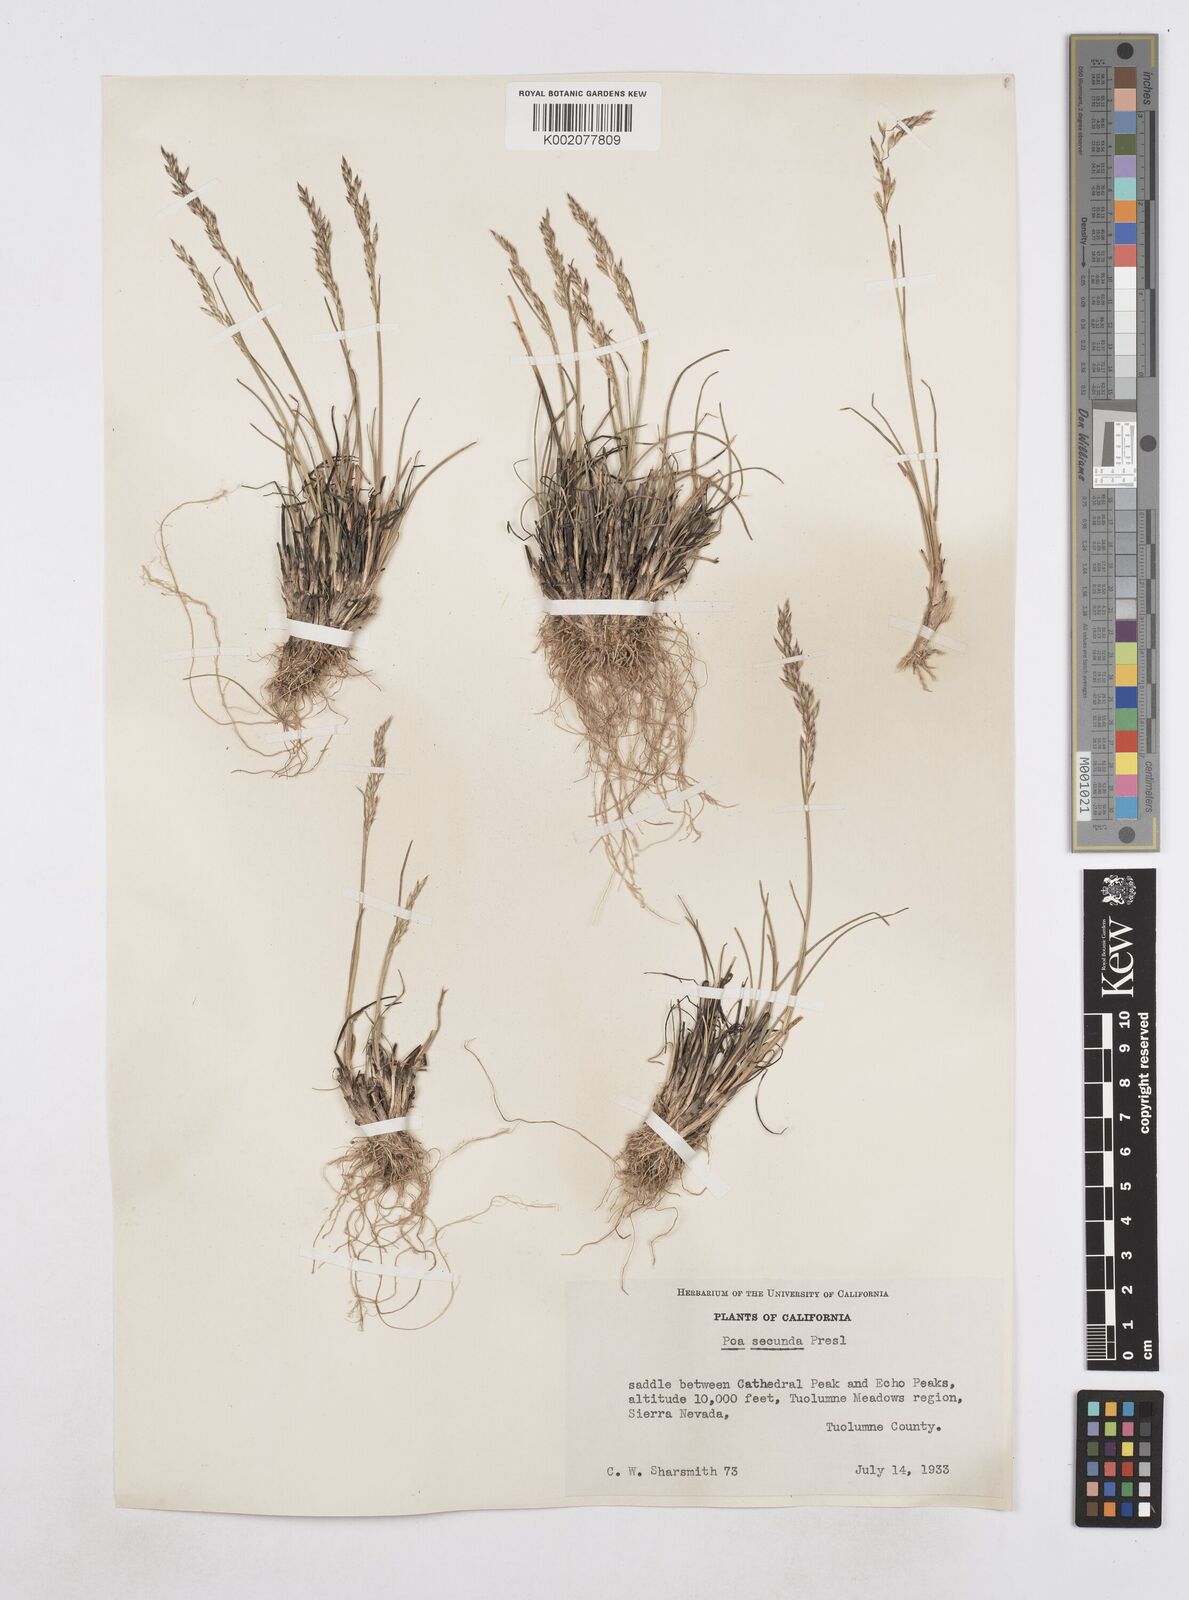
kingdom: Plantae
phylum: Tracheophyta
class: Liliopsida
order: Poales
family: Poaceae
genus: Poa
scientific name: Poa secunda
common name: Sandberg bluegrass
